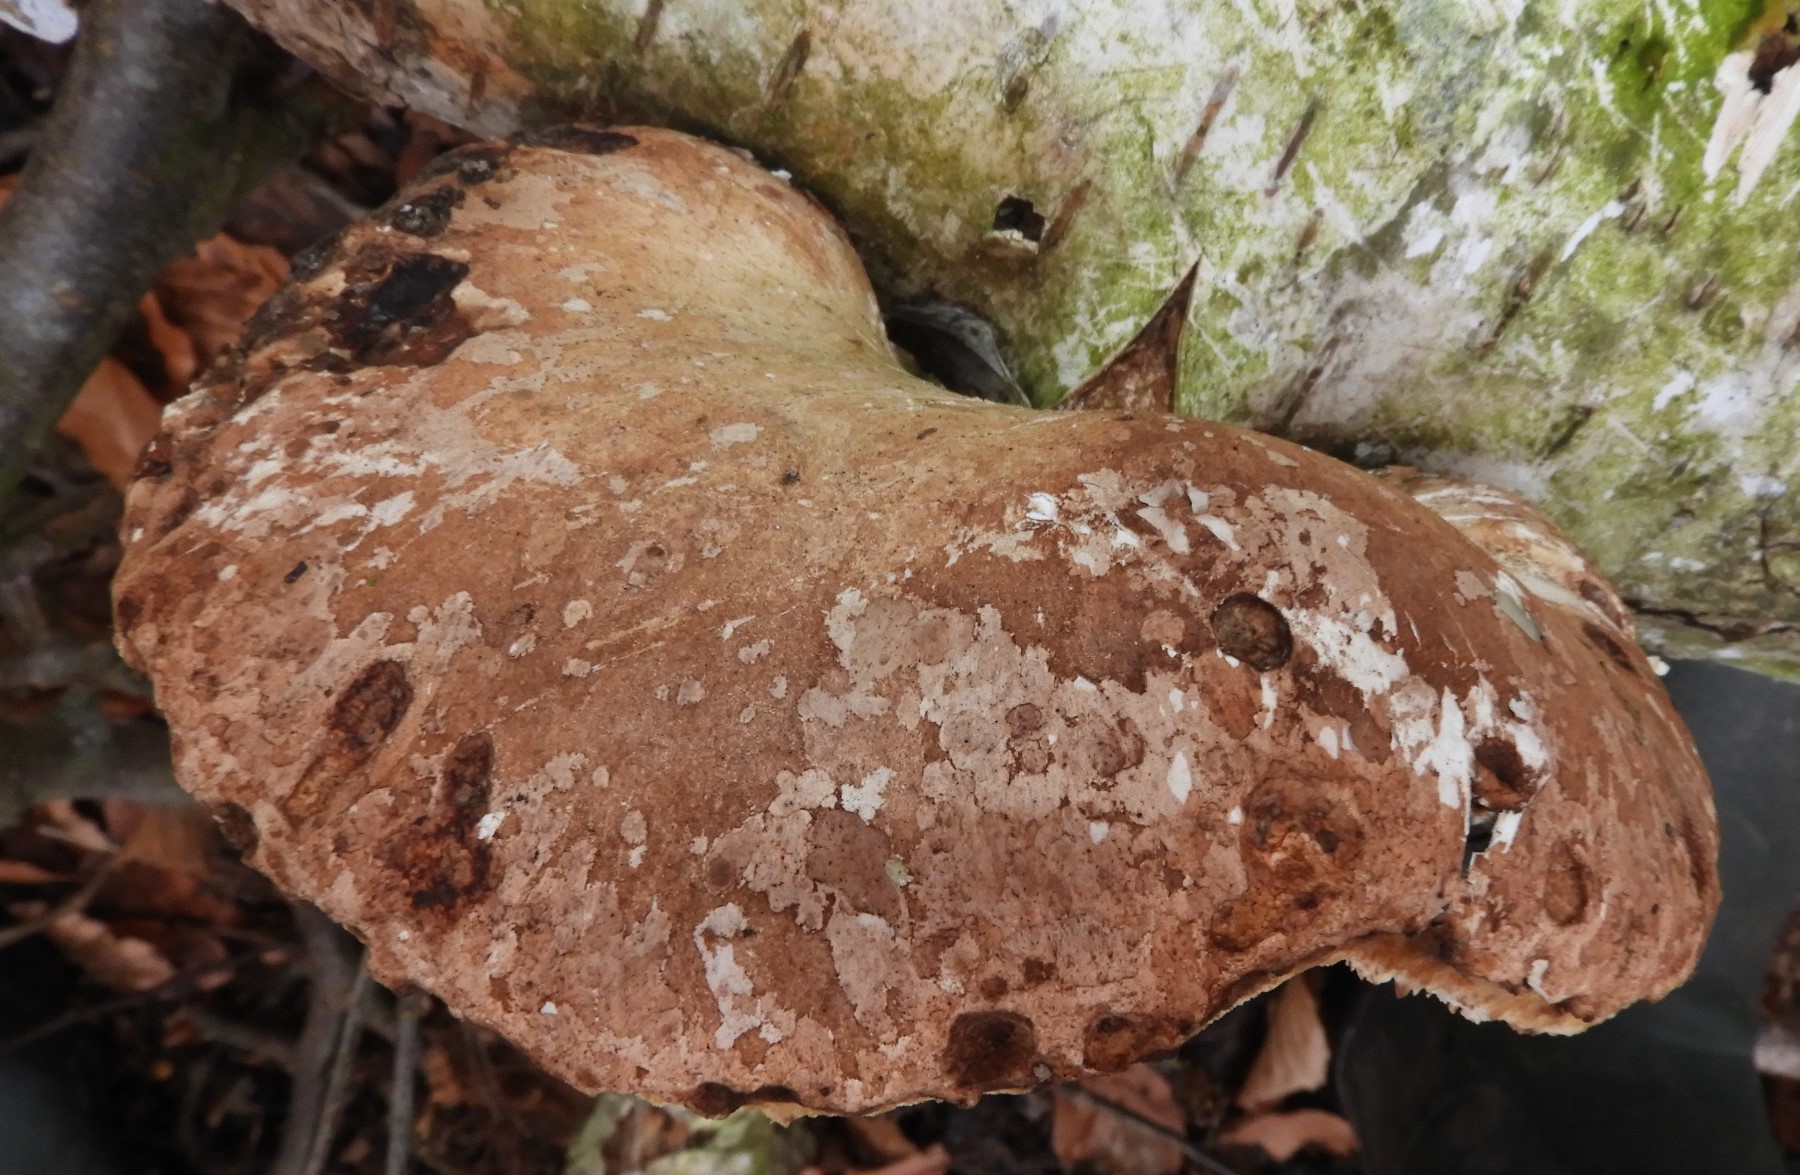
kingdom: Fungi
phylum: Basidiomycota
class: Agaricomycetes
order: Polyporales
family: Fomitopsidaceae
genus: Fomitopsis
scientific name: Fomitopsis betulina
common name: birkeporesvamp
